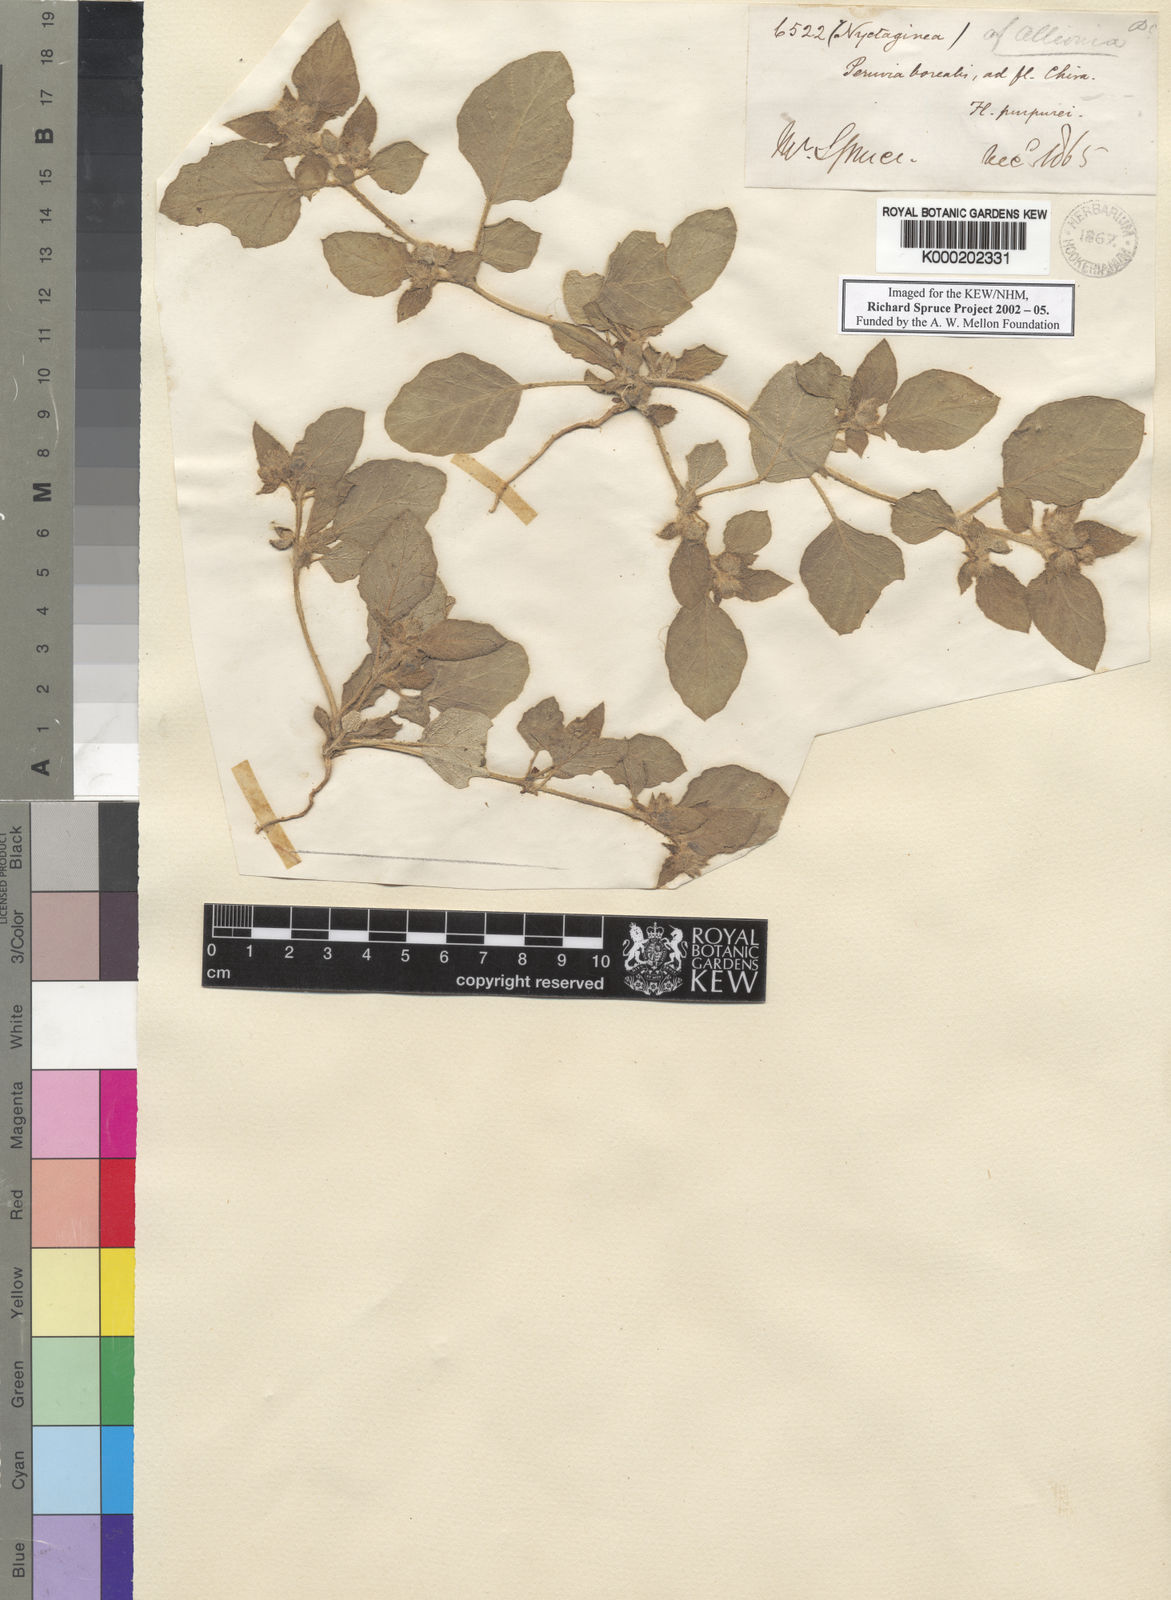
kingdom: Plantae
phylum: Tracheophyta
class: Magnoliopsida
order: Caryophyllales
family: Nyctaginaceae
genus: Allionia
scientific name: Allionia incarnata
